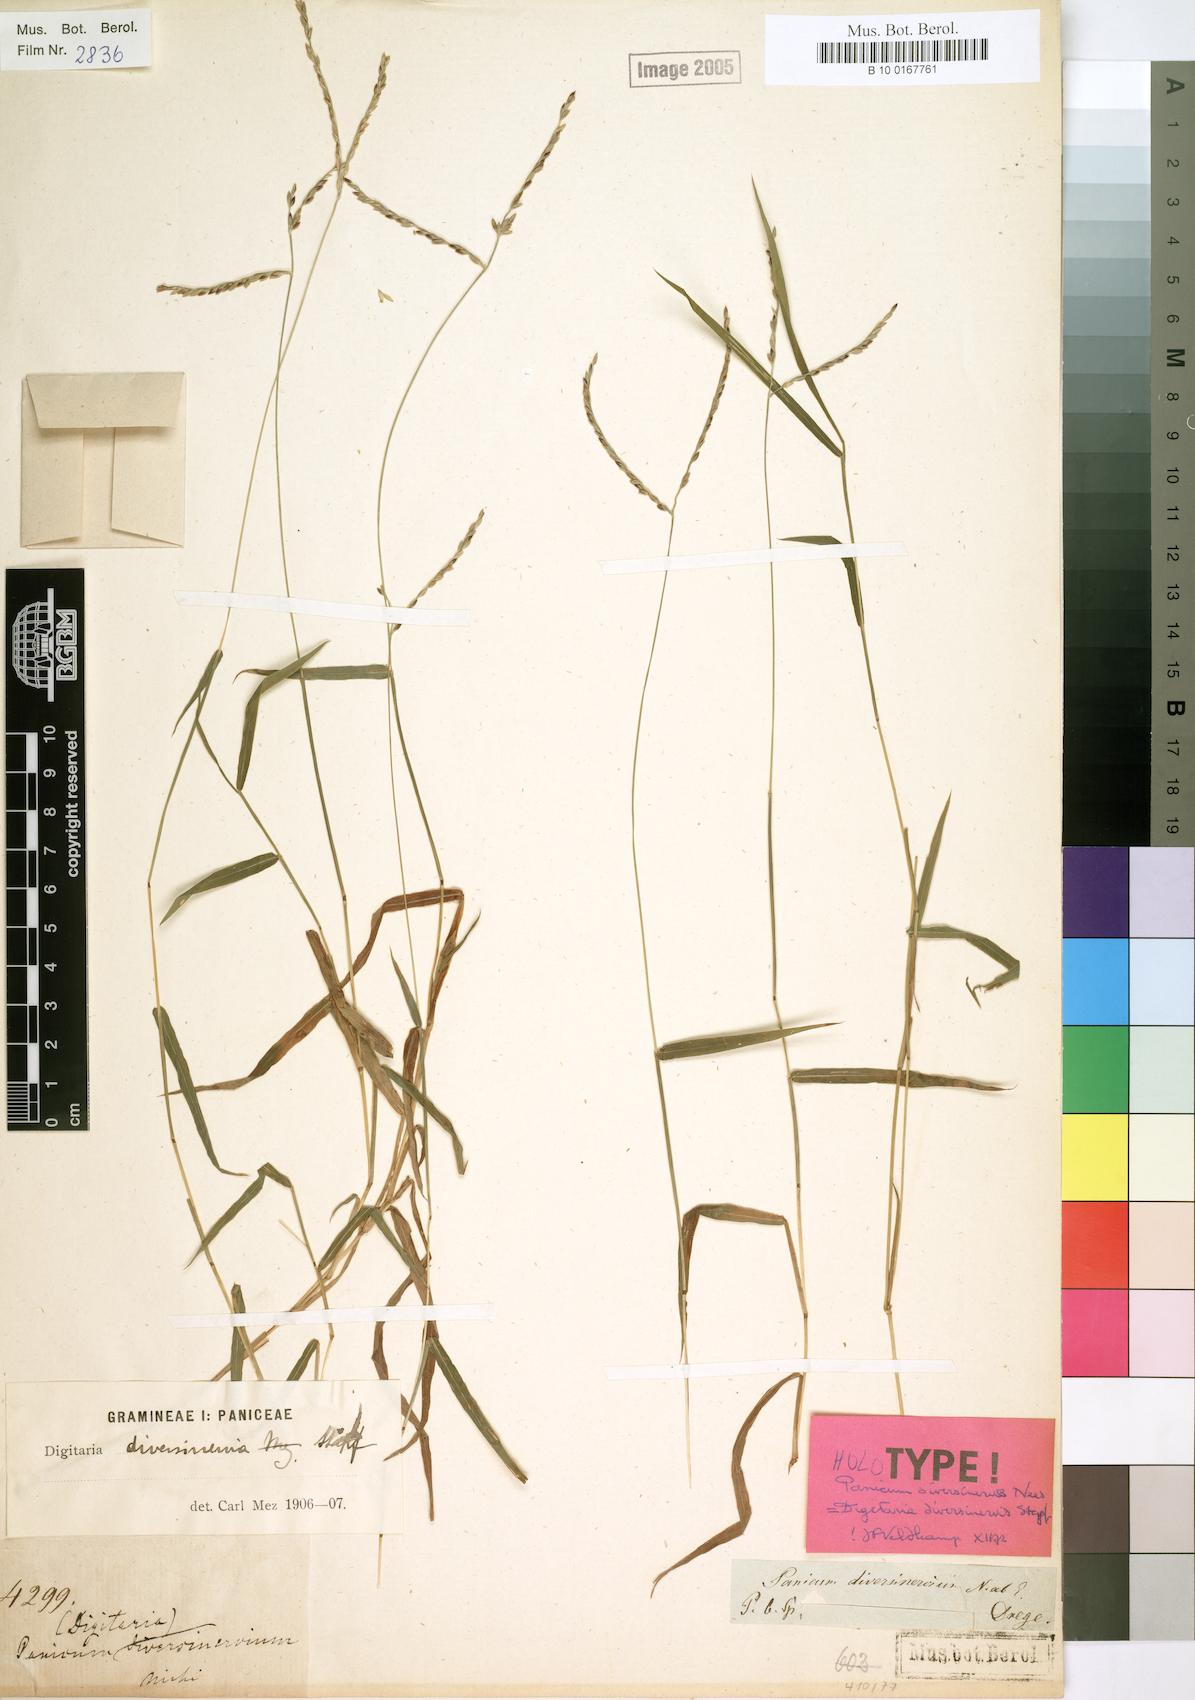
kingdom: Plantae
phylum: Tracheophyta
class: Liliopsida
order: Poales
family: Poaceae
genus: Digitaria
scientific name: Digitaria diversinervis
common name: Richmond finger grass
